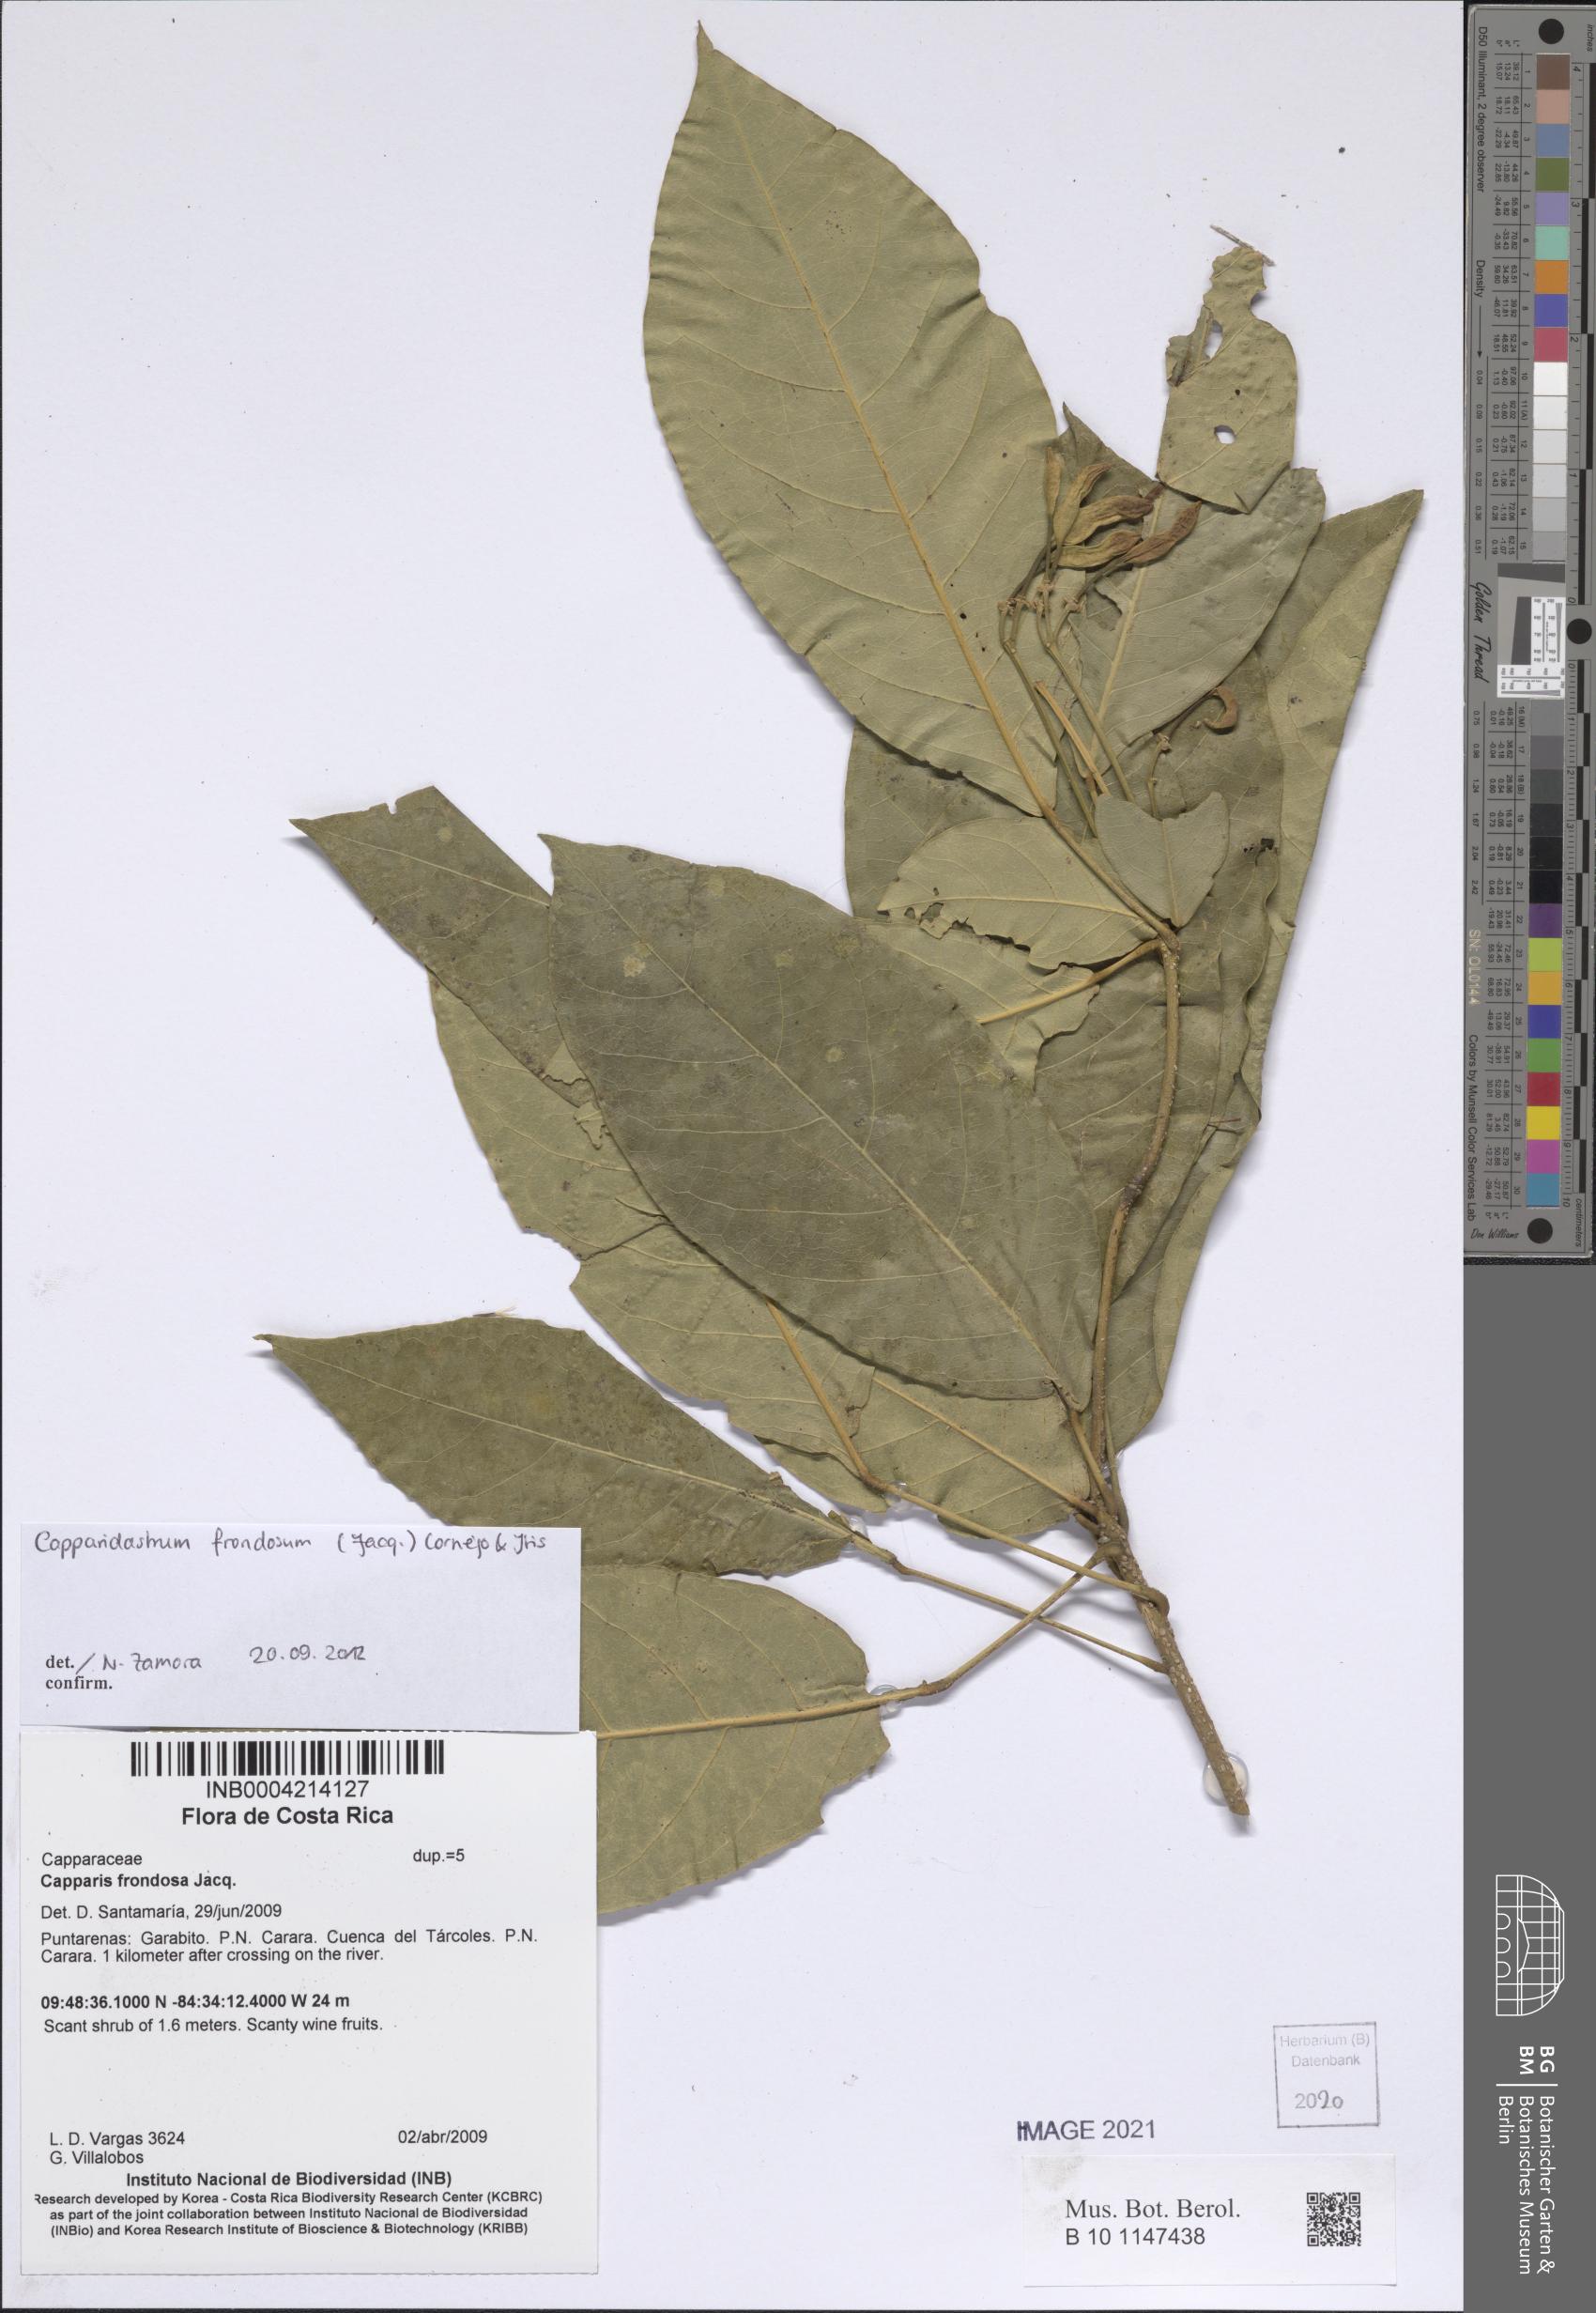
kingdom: Plantae
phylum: Tracheophyta
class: Magnoliopsida
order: Brassicales
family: Capparaceae
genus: Capparidastrum
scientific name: Capparidastrum frondosum
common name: Church blossom
